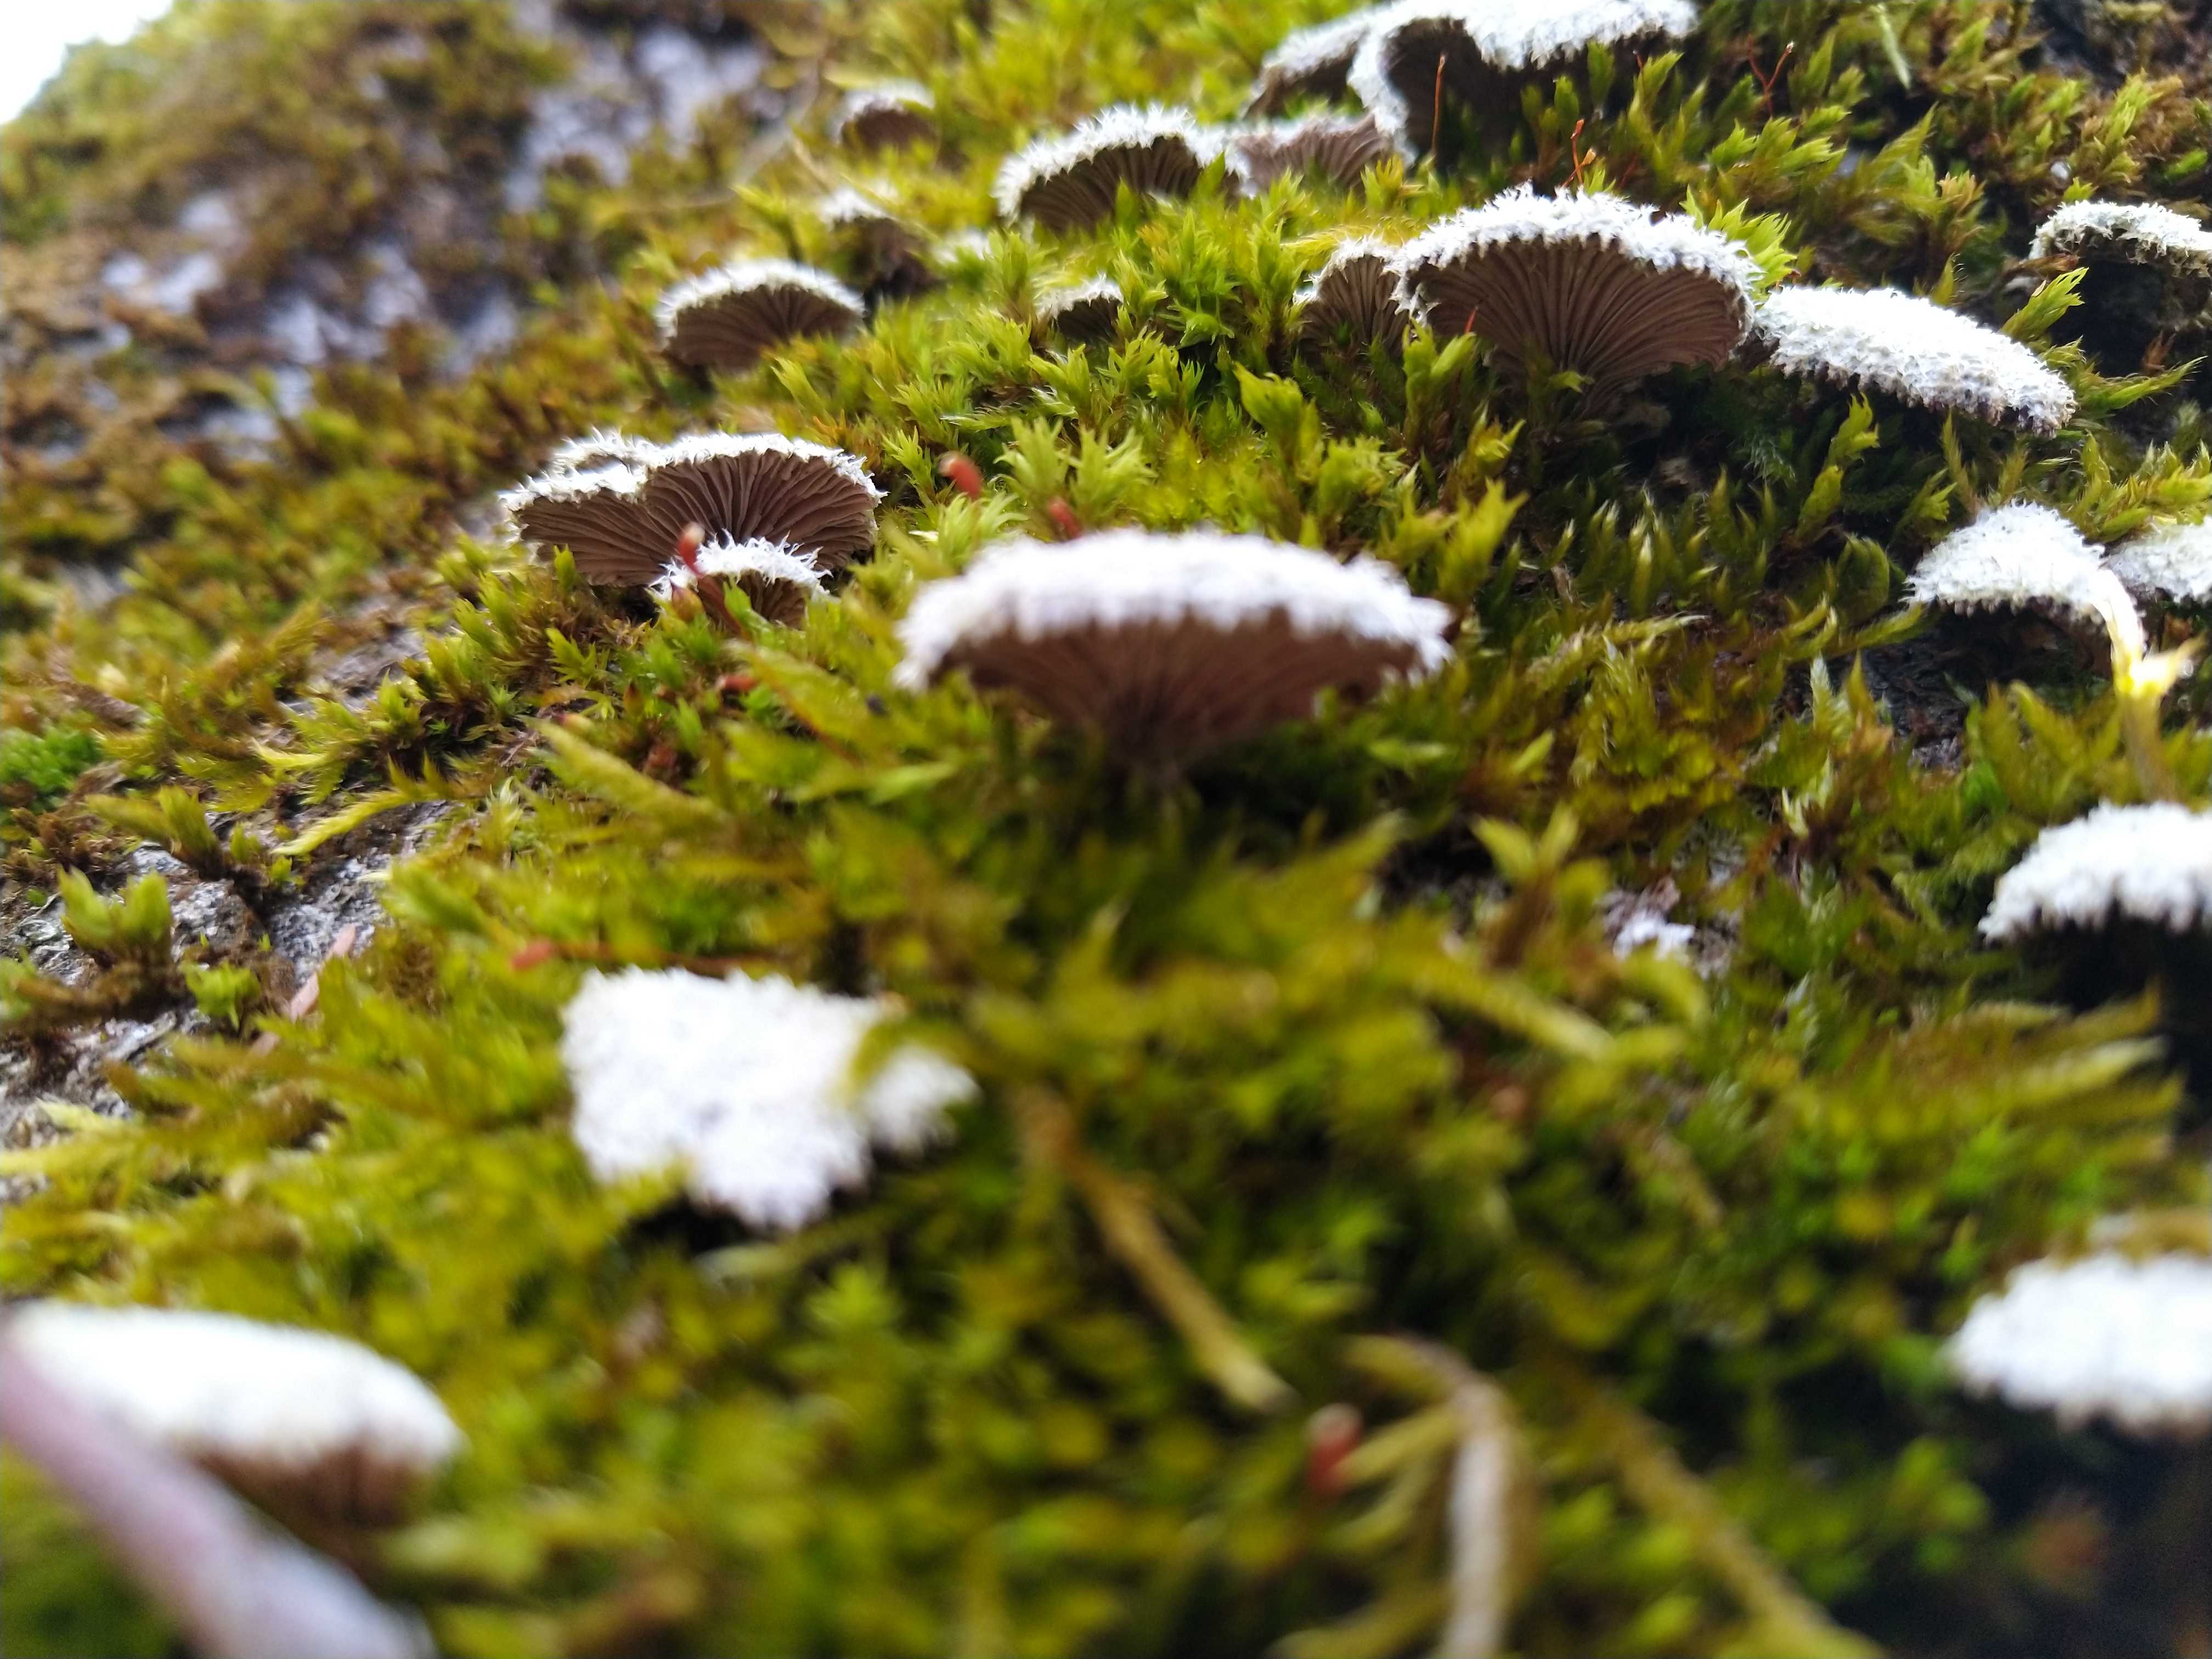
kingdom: Fungi
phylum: Basidiomycota
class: Agaricomycetes
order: Agaricales
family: Schizophyllaceae
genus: Schizophyllum
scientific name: Schizophyllum commune
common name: kløvblad
